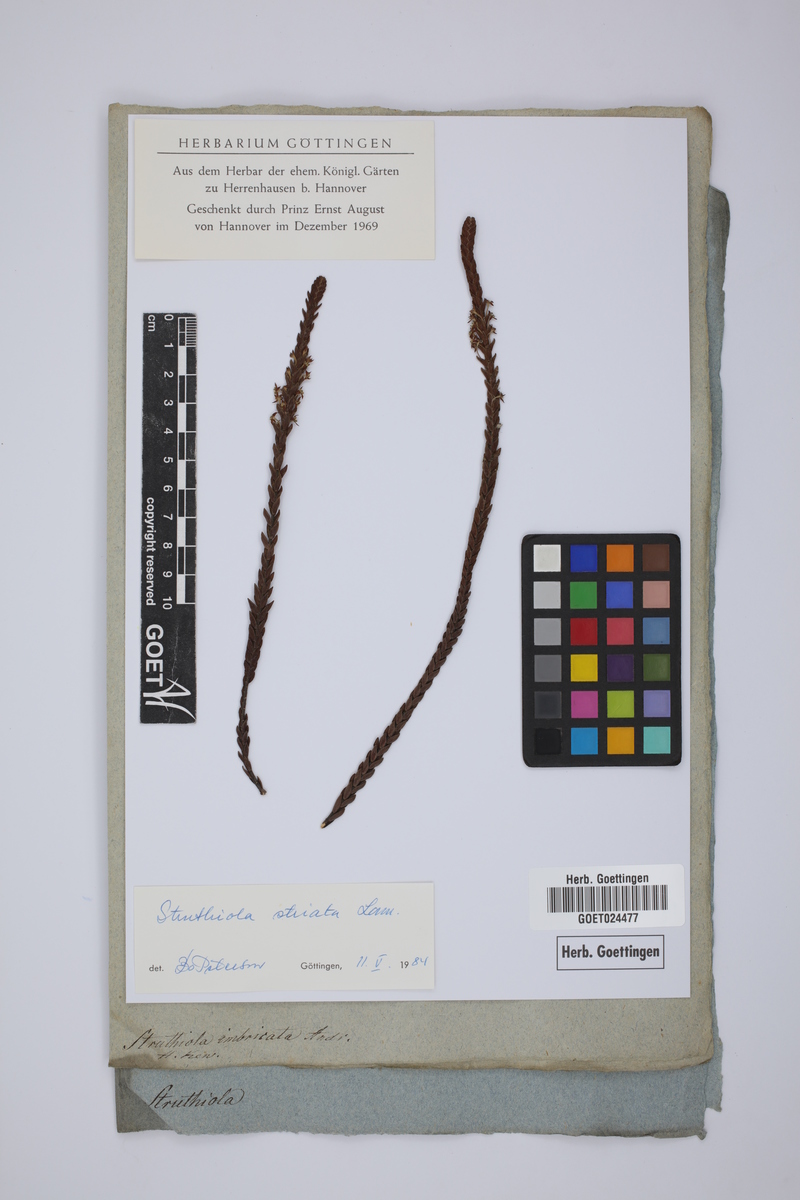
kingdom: Plantae
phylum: Tracheophyta
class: Magnoliopsida
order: Malvales
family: Thymelaeaceae
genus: Struthiola
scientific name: Struthiola striata
